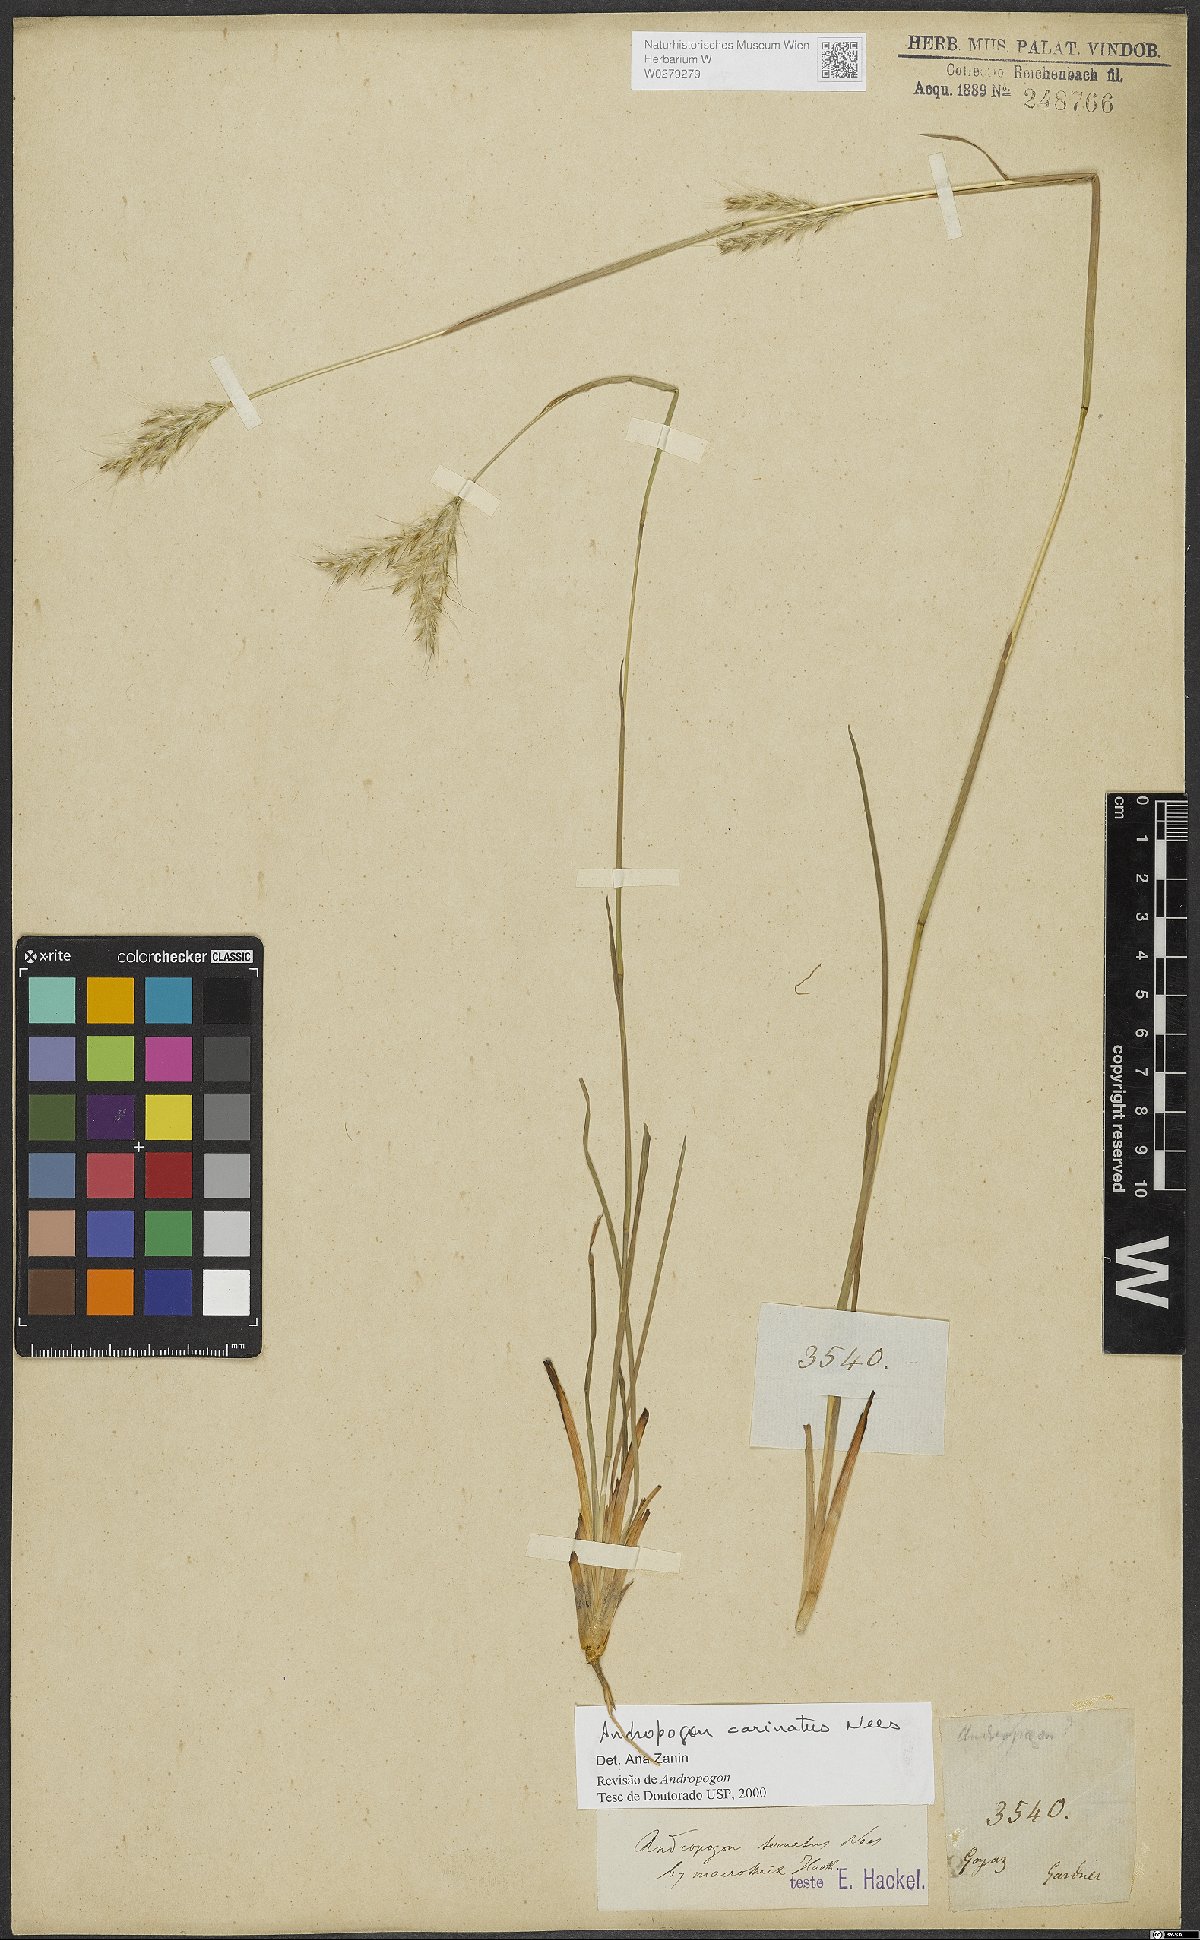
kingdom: Plantae
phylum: Tracheophyta
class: Liliopsida
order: Poales
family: Poaceae
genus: Andropogon
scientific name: Andropogon carinatus
